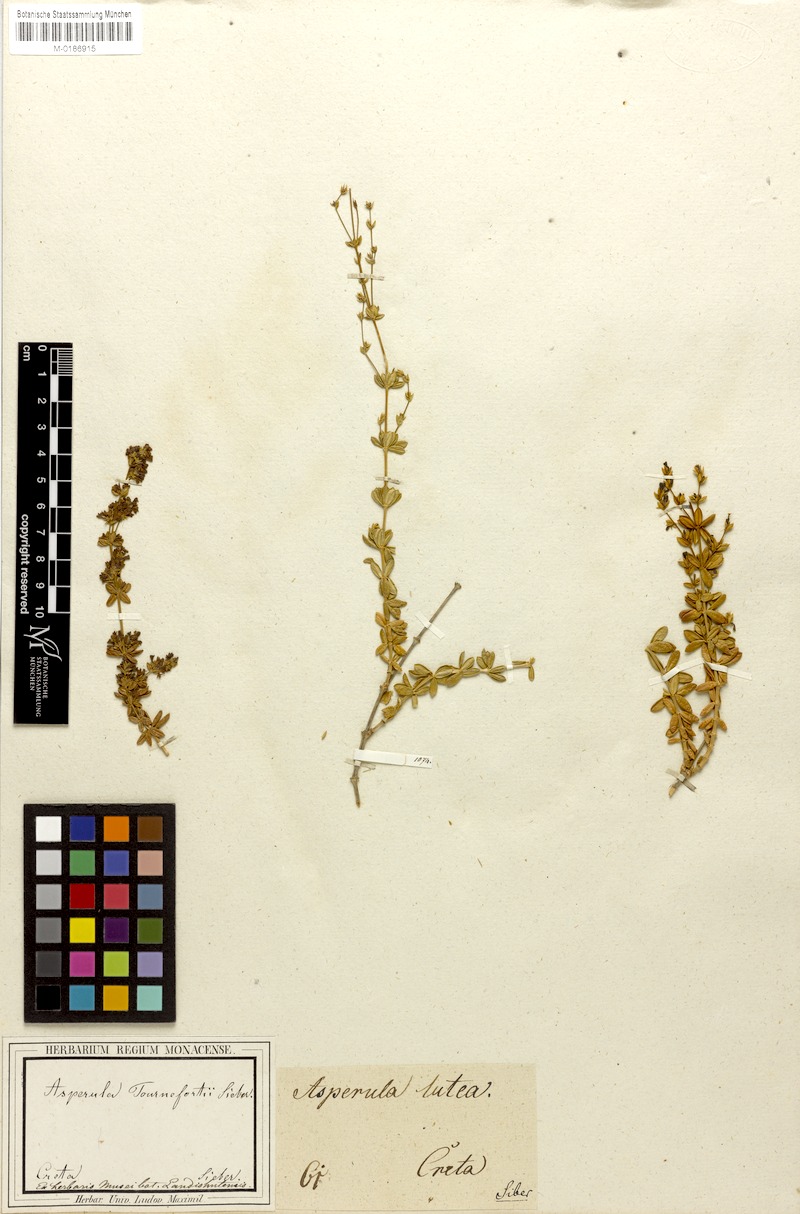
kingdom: Plantae
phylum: Tracheophyta
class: Magnoliopsida
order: Gentianales
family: Rubiaceae
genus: Asperula
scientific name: Asperula tournefortii
